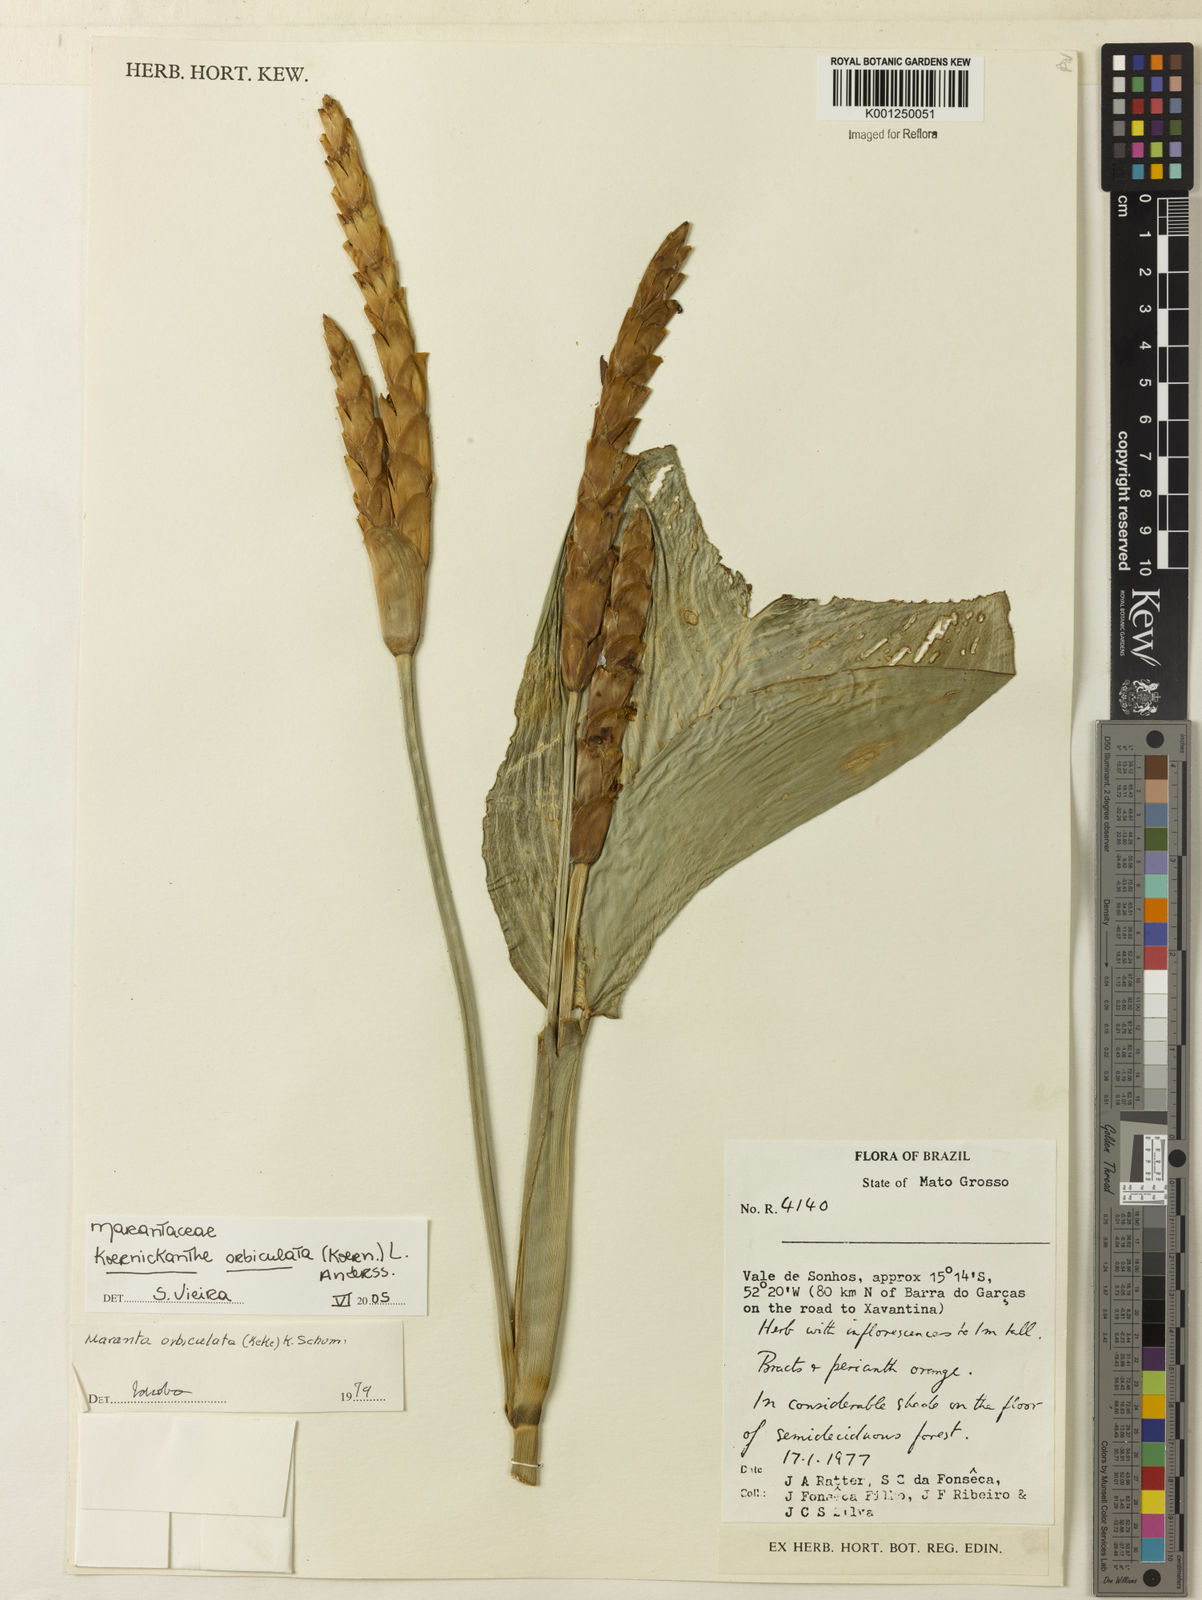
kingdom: Plantae
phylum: Tracheophyta
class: Liliopsida
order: Zingiberales
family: Marantaceae
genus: Koernickanthe
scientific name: Koernickanthe orbiculata
